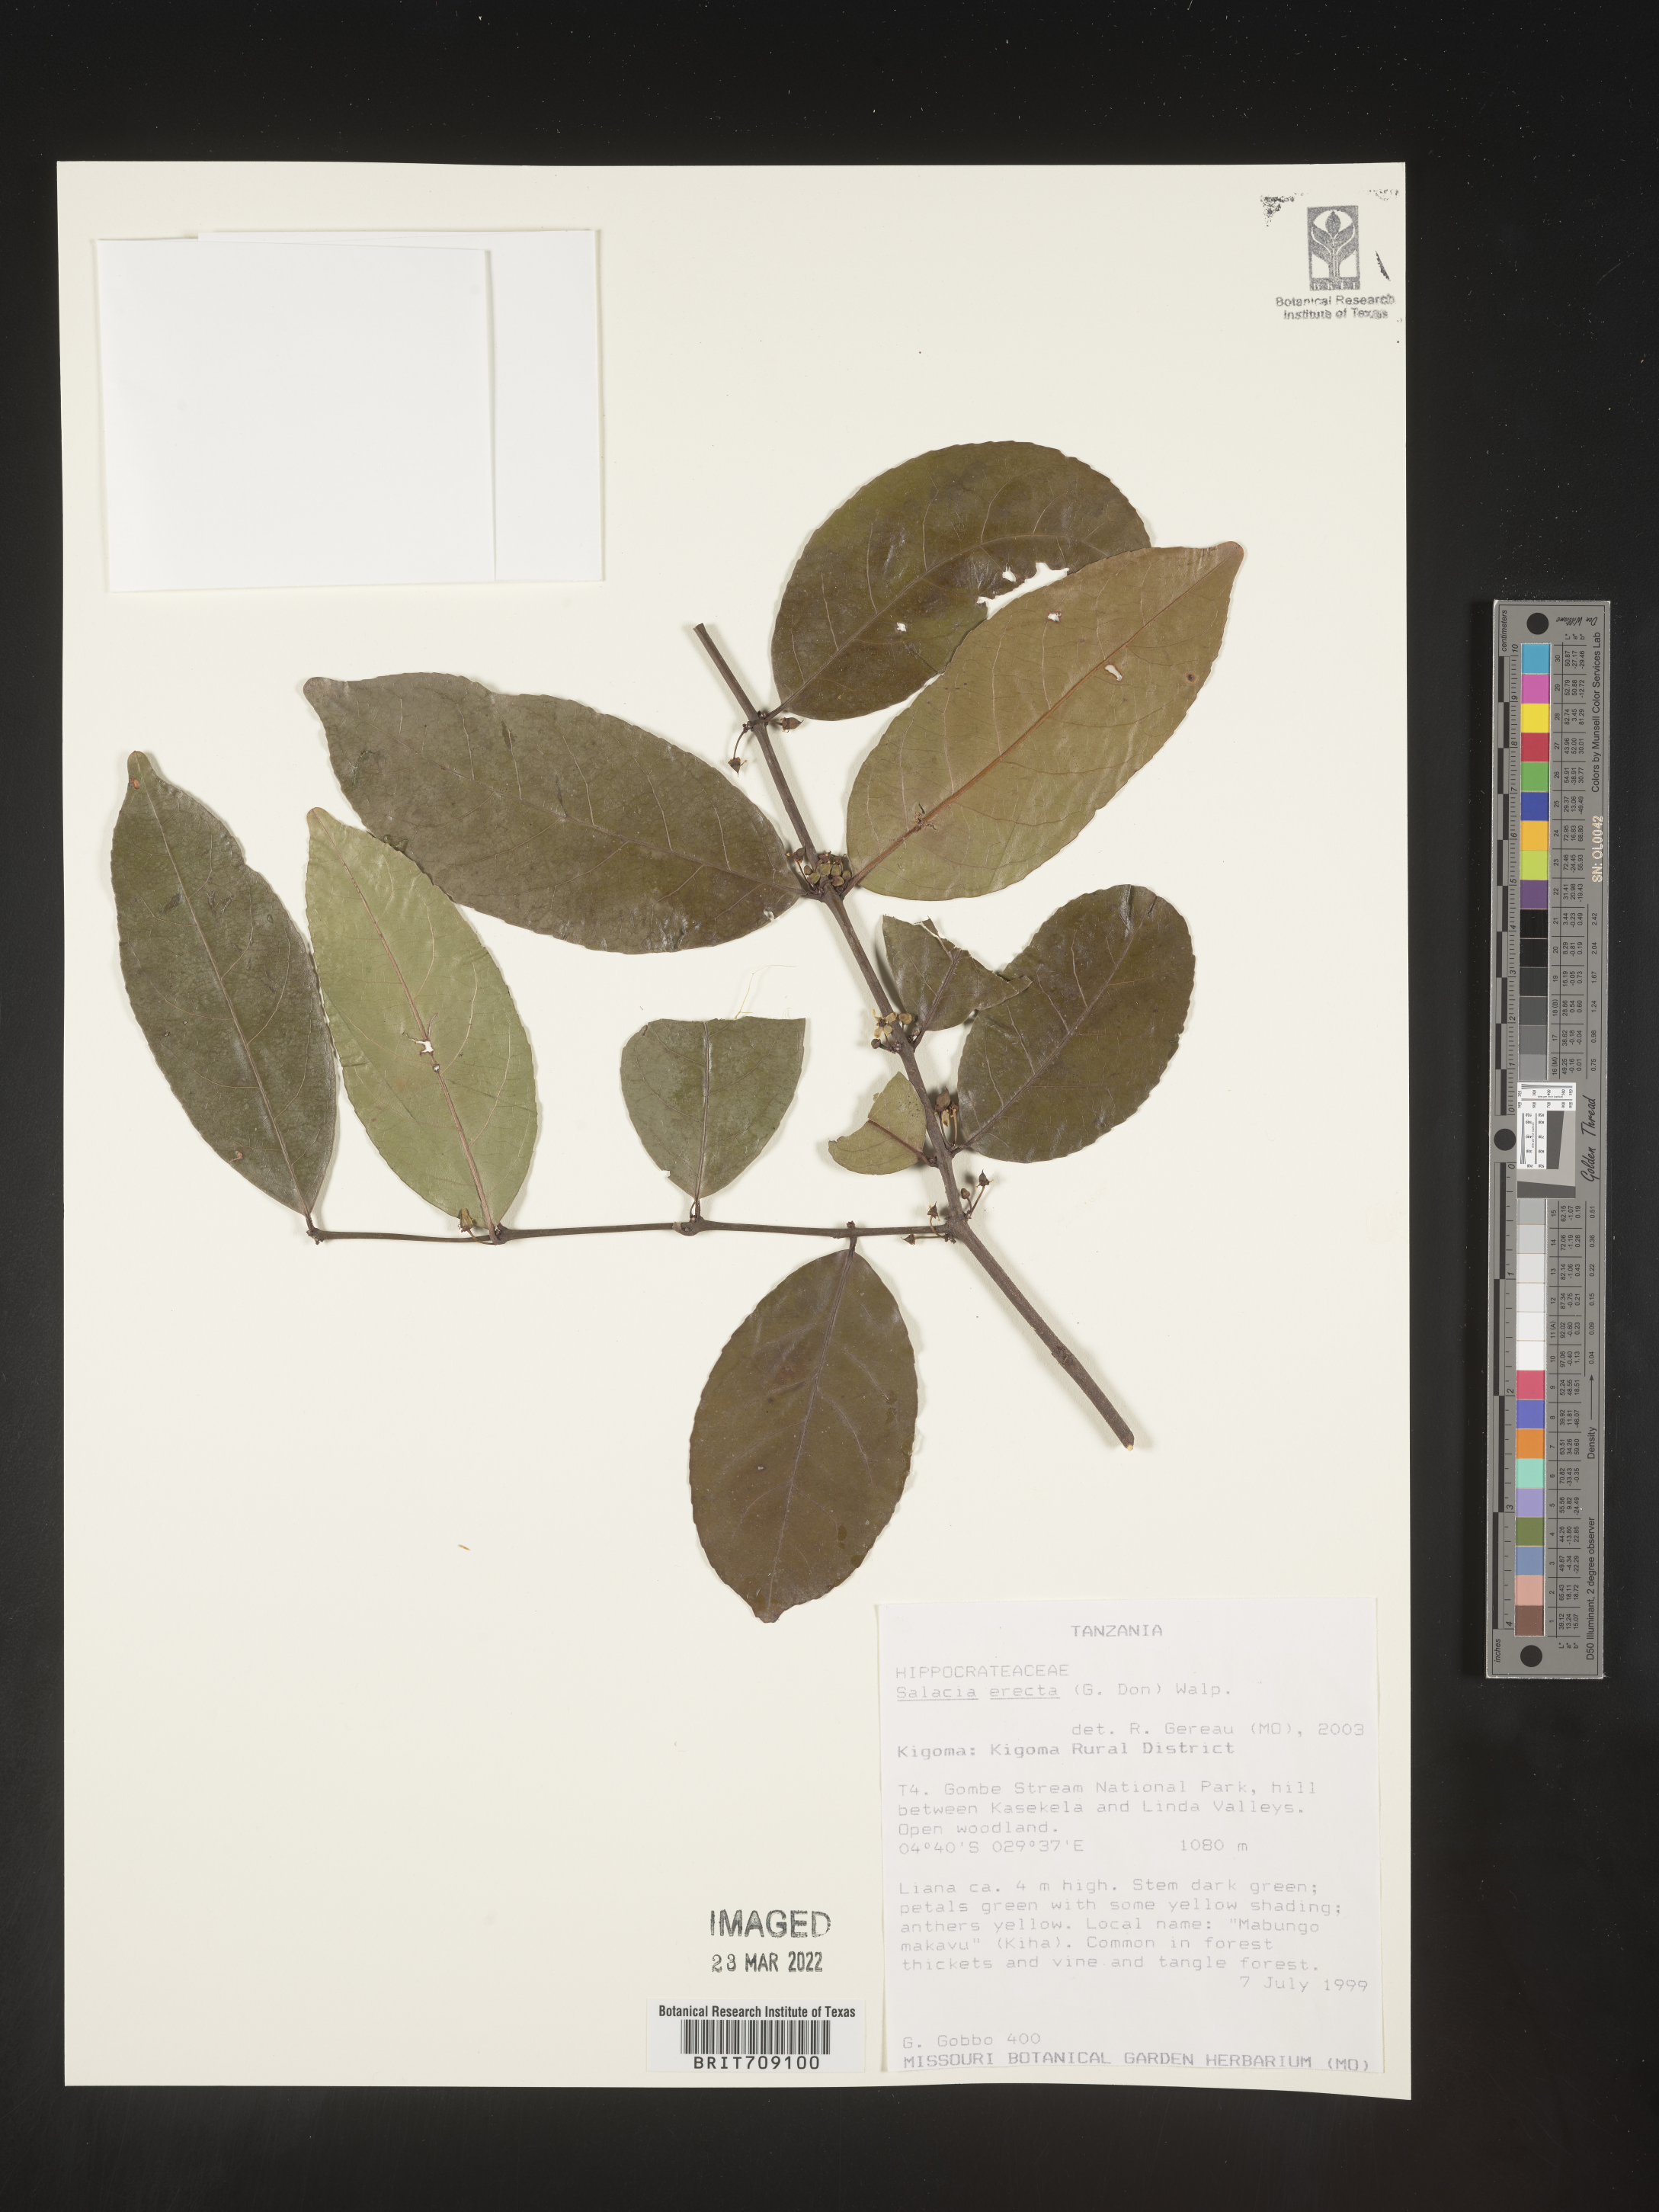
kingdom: Plantae
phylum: Tracheophyta
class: Magnoliopsida
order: Celastrales
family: Celastraceae
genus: Salacia
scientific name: Salacia
